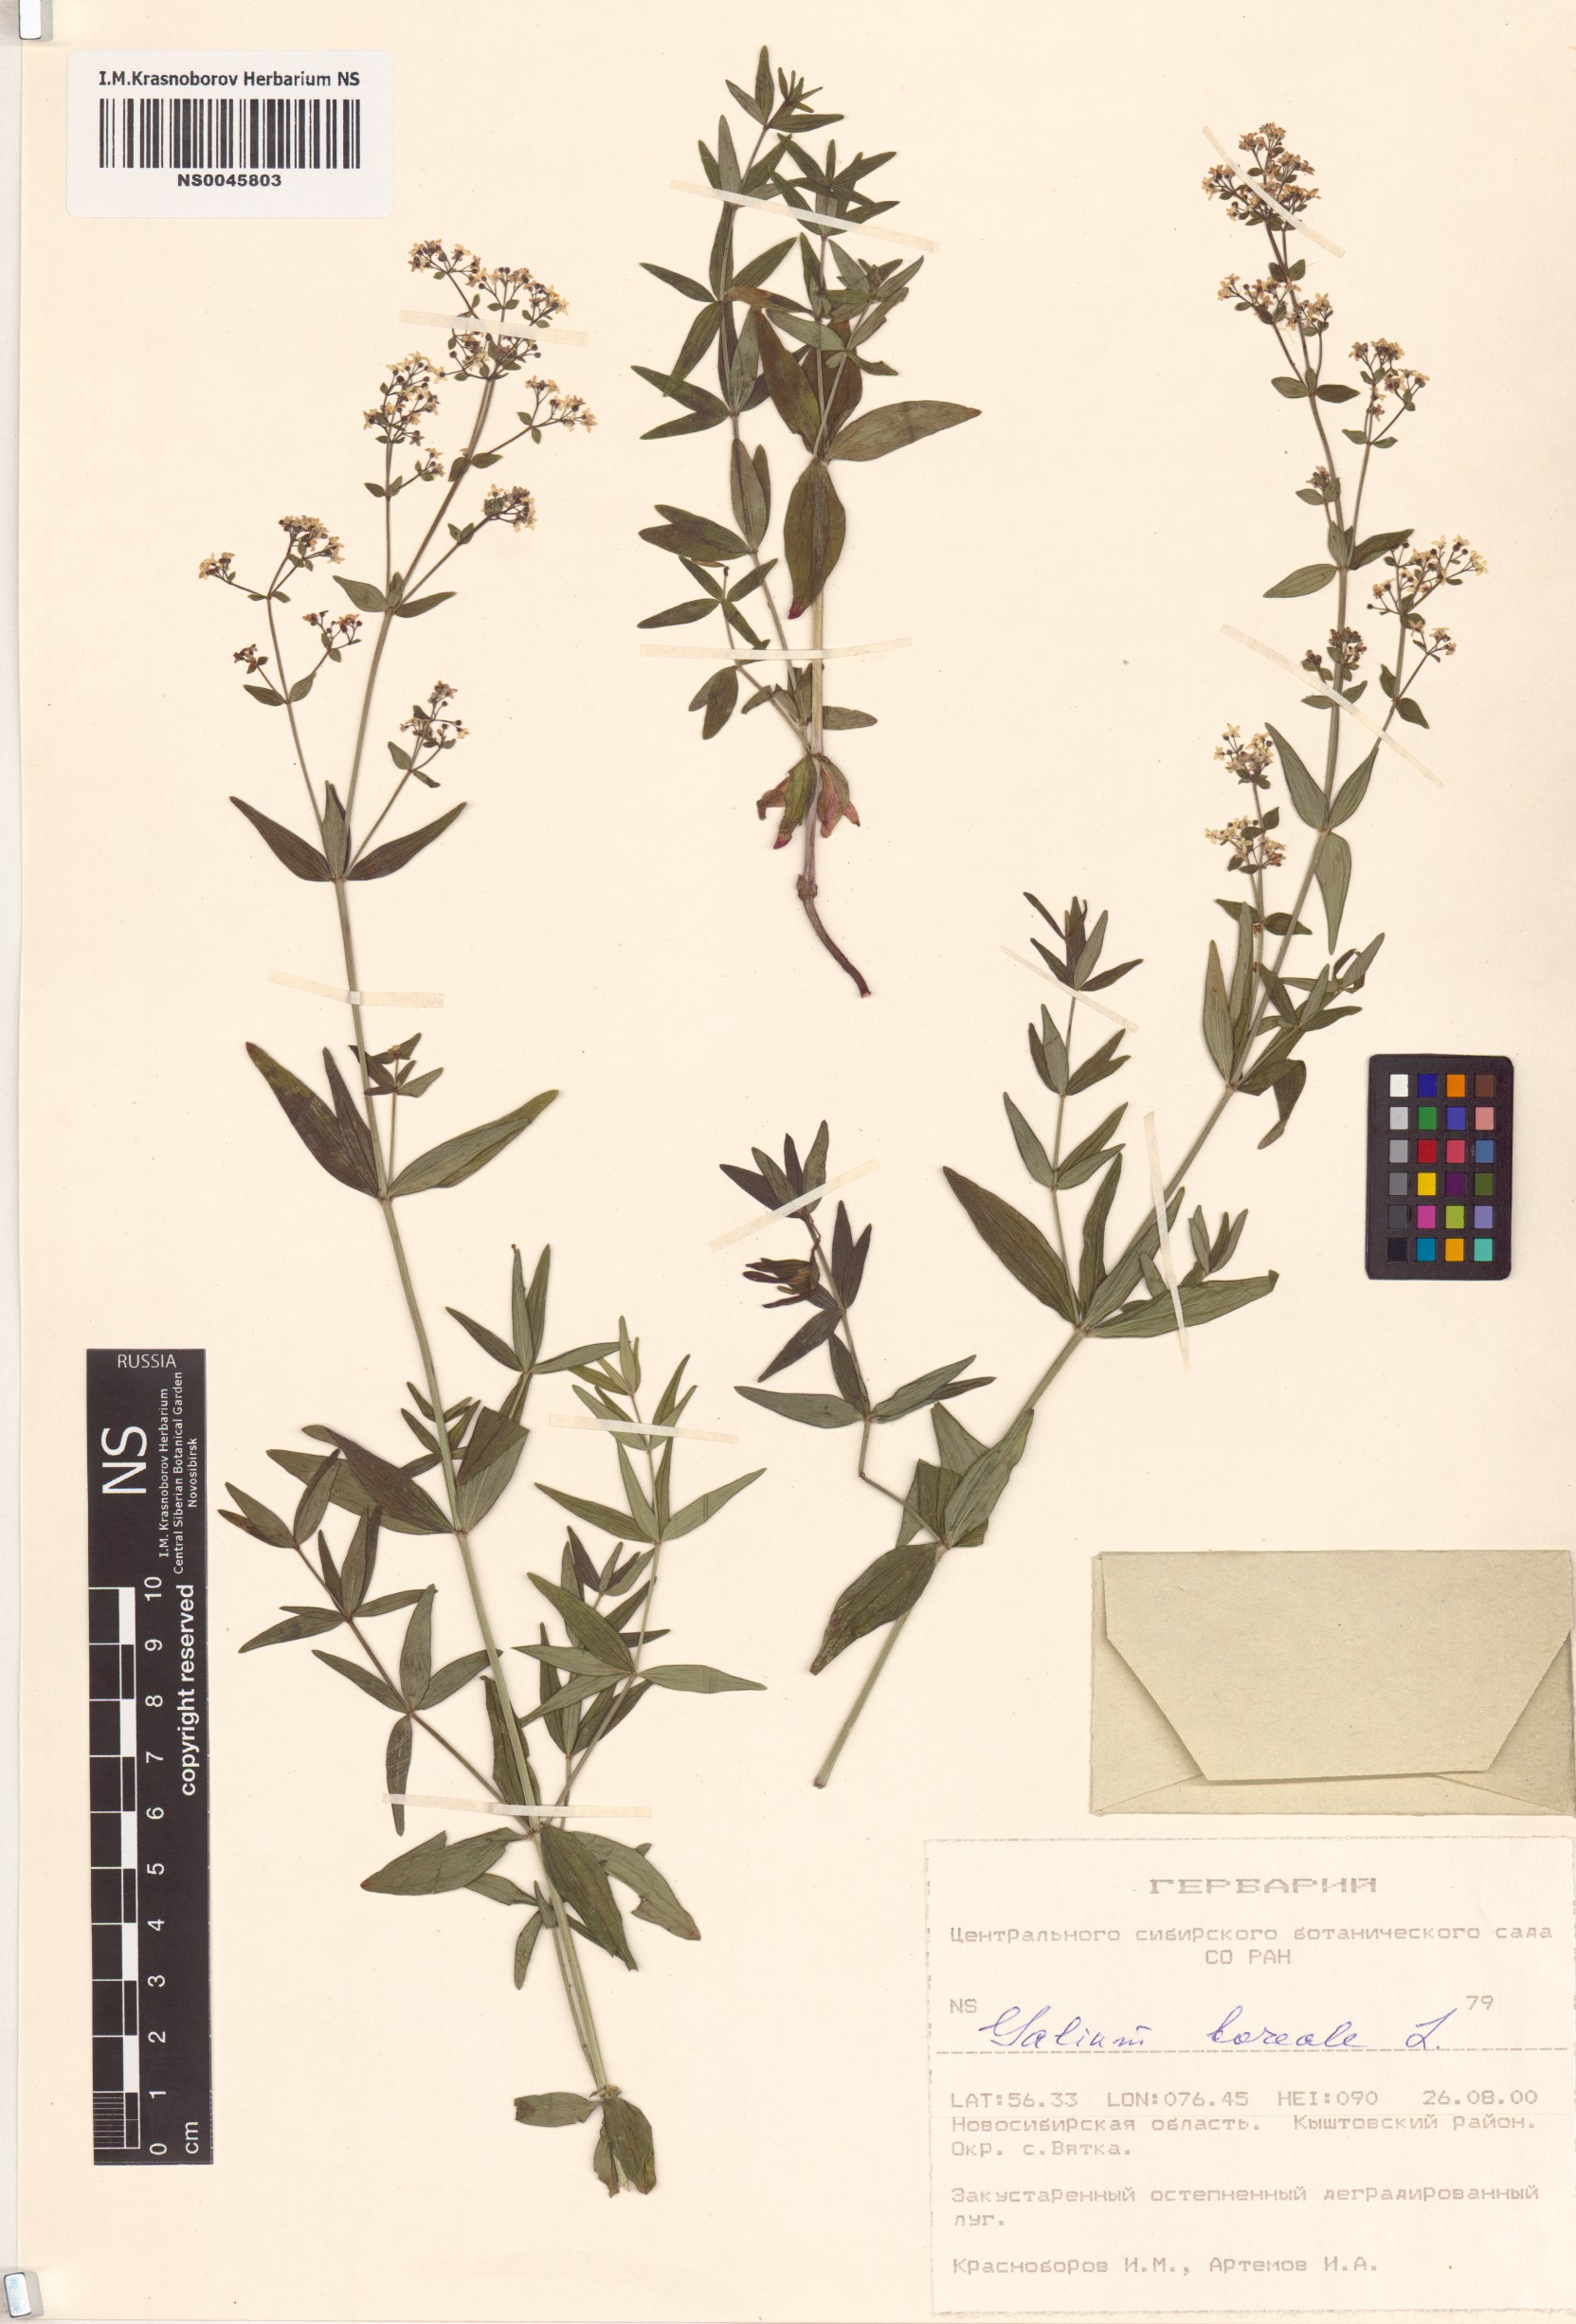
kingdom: Plantae
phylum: Tracheophyta
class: Magnoliopsida
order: Gentianales
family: Rubiaceae
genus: Galium
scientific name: Galium boreale
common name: Northern bedstraw
